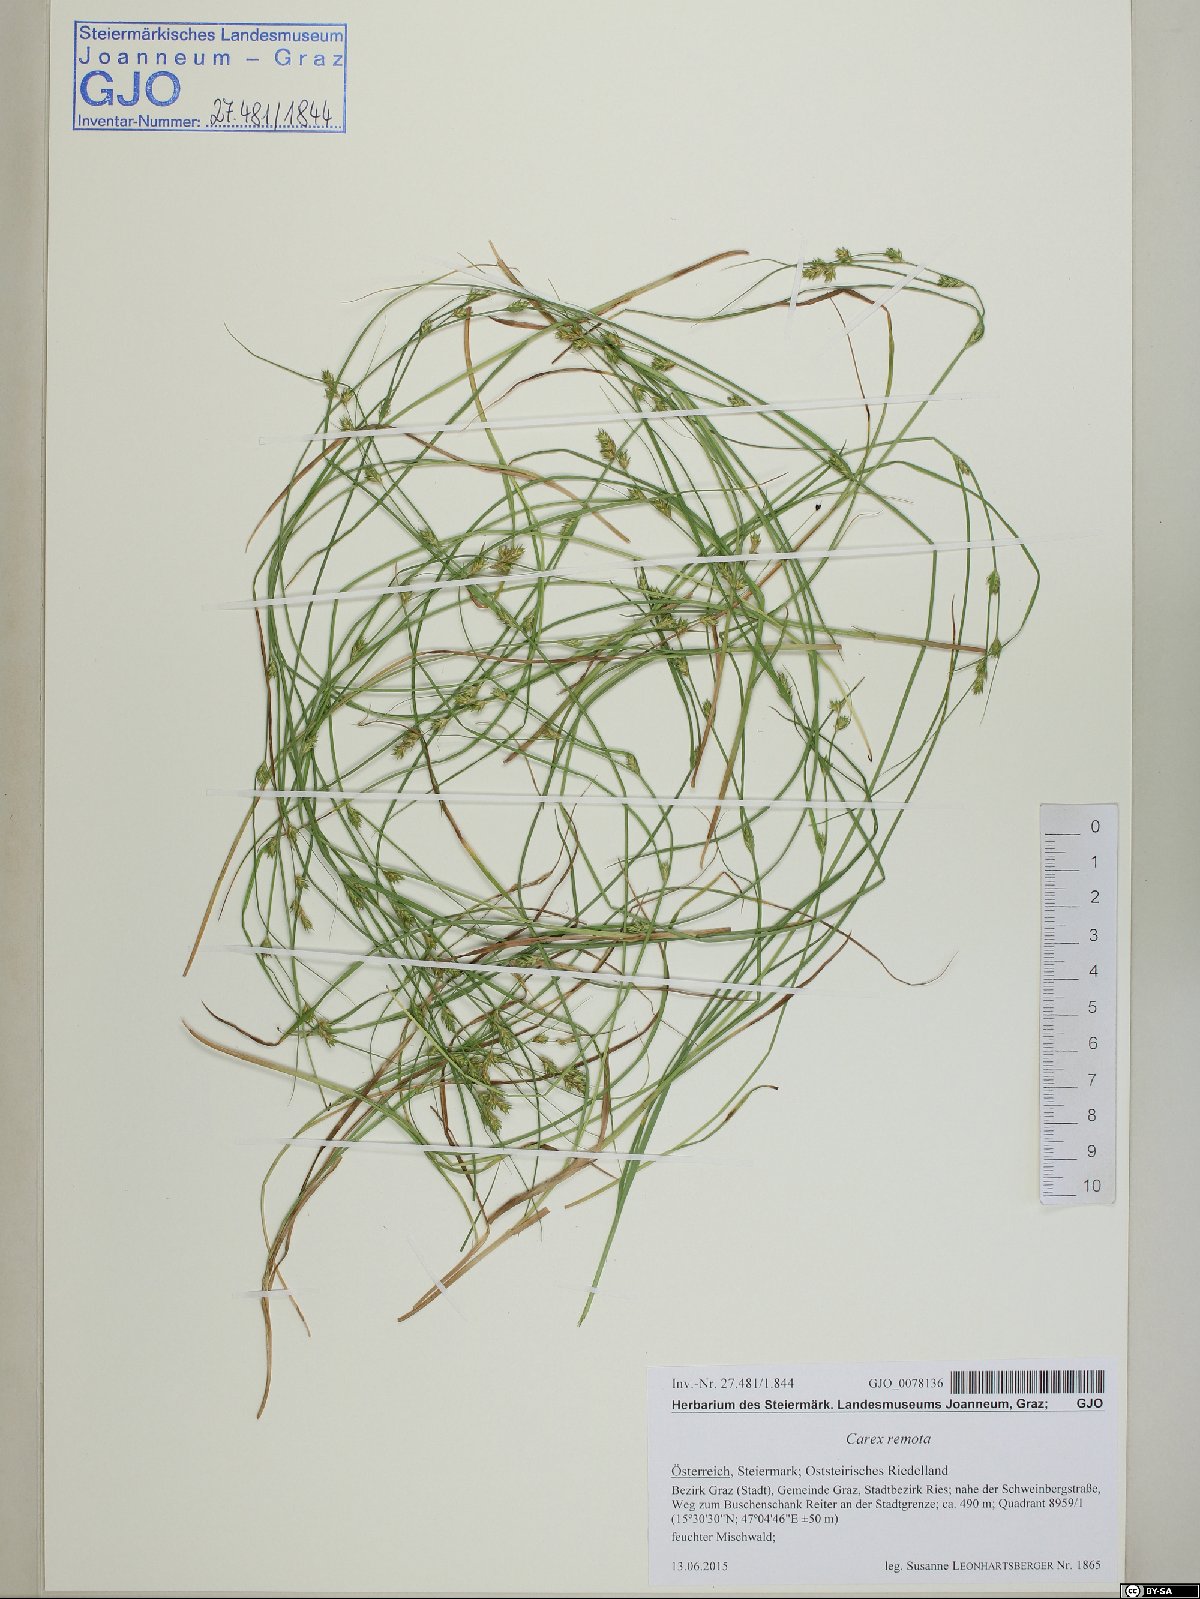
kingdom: Plantae
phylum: Tracheophyta
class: Liliopsida
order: Poales
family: Cyperaceae
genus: Carex
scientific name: Carex remota
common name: Remote sedge
